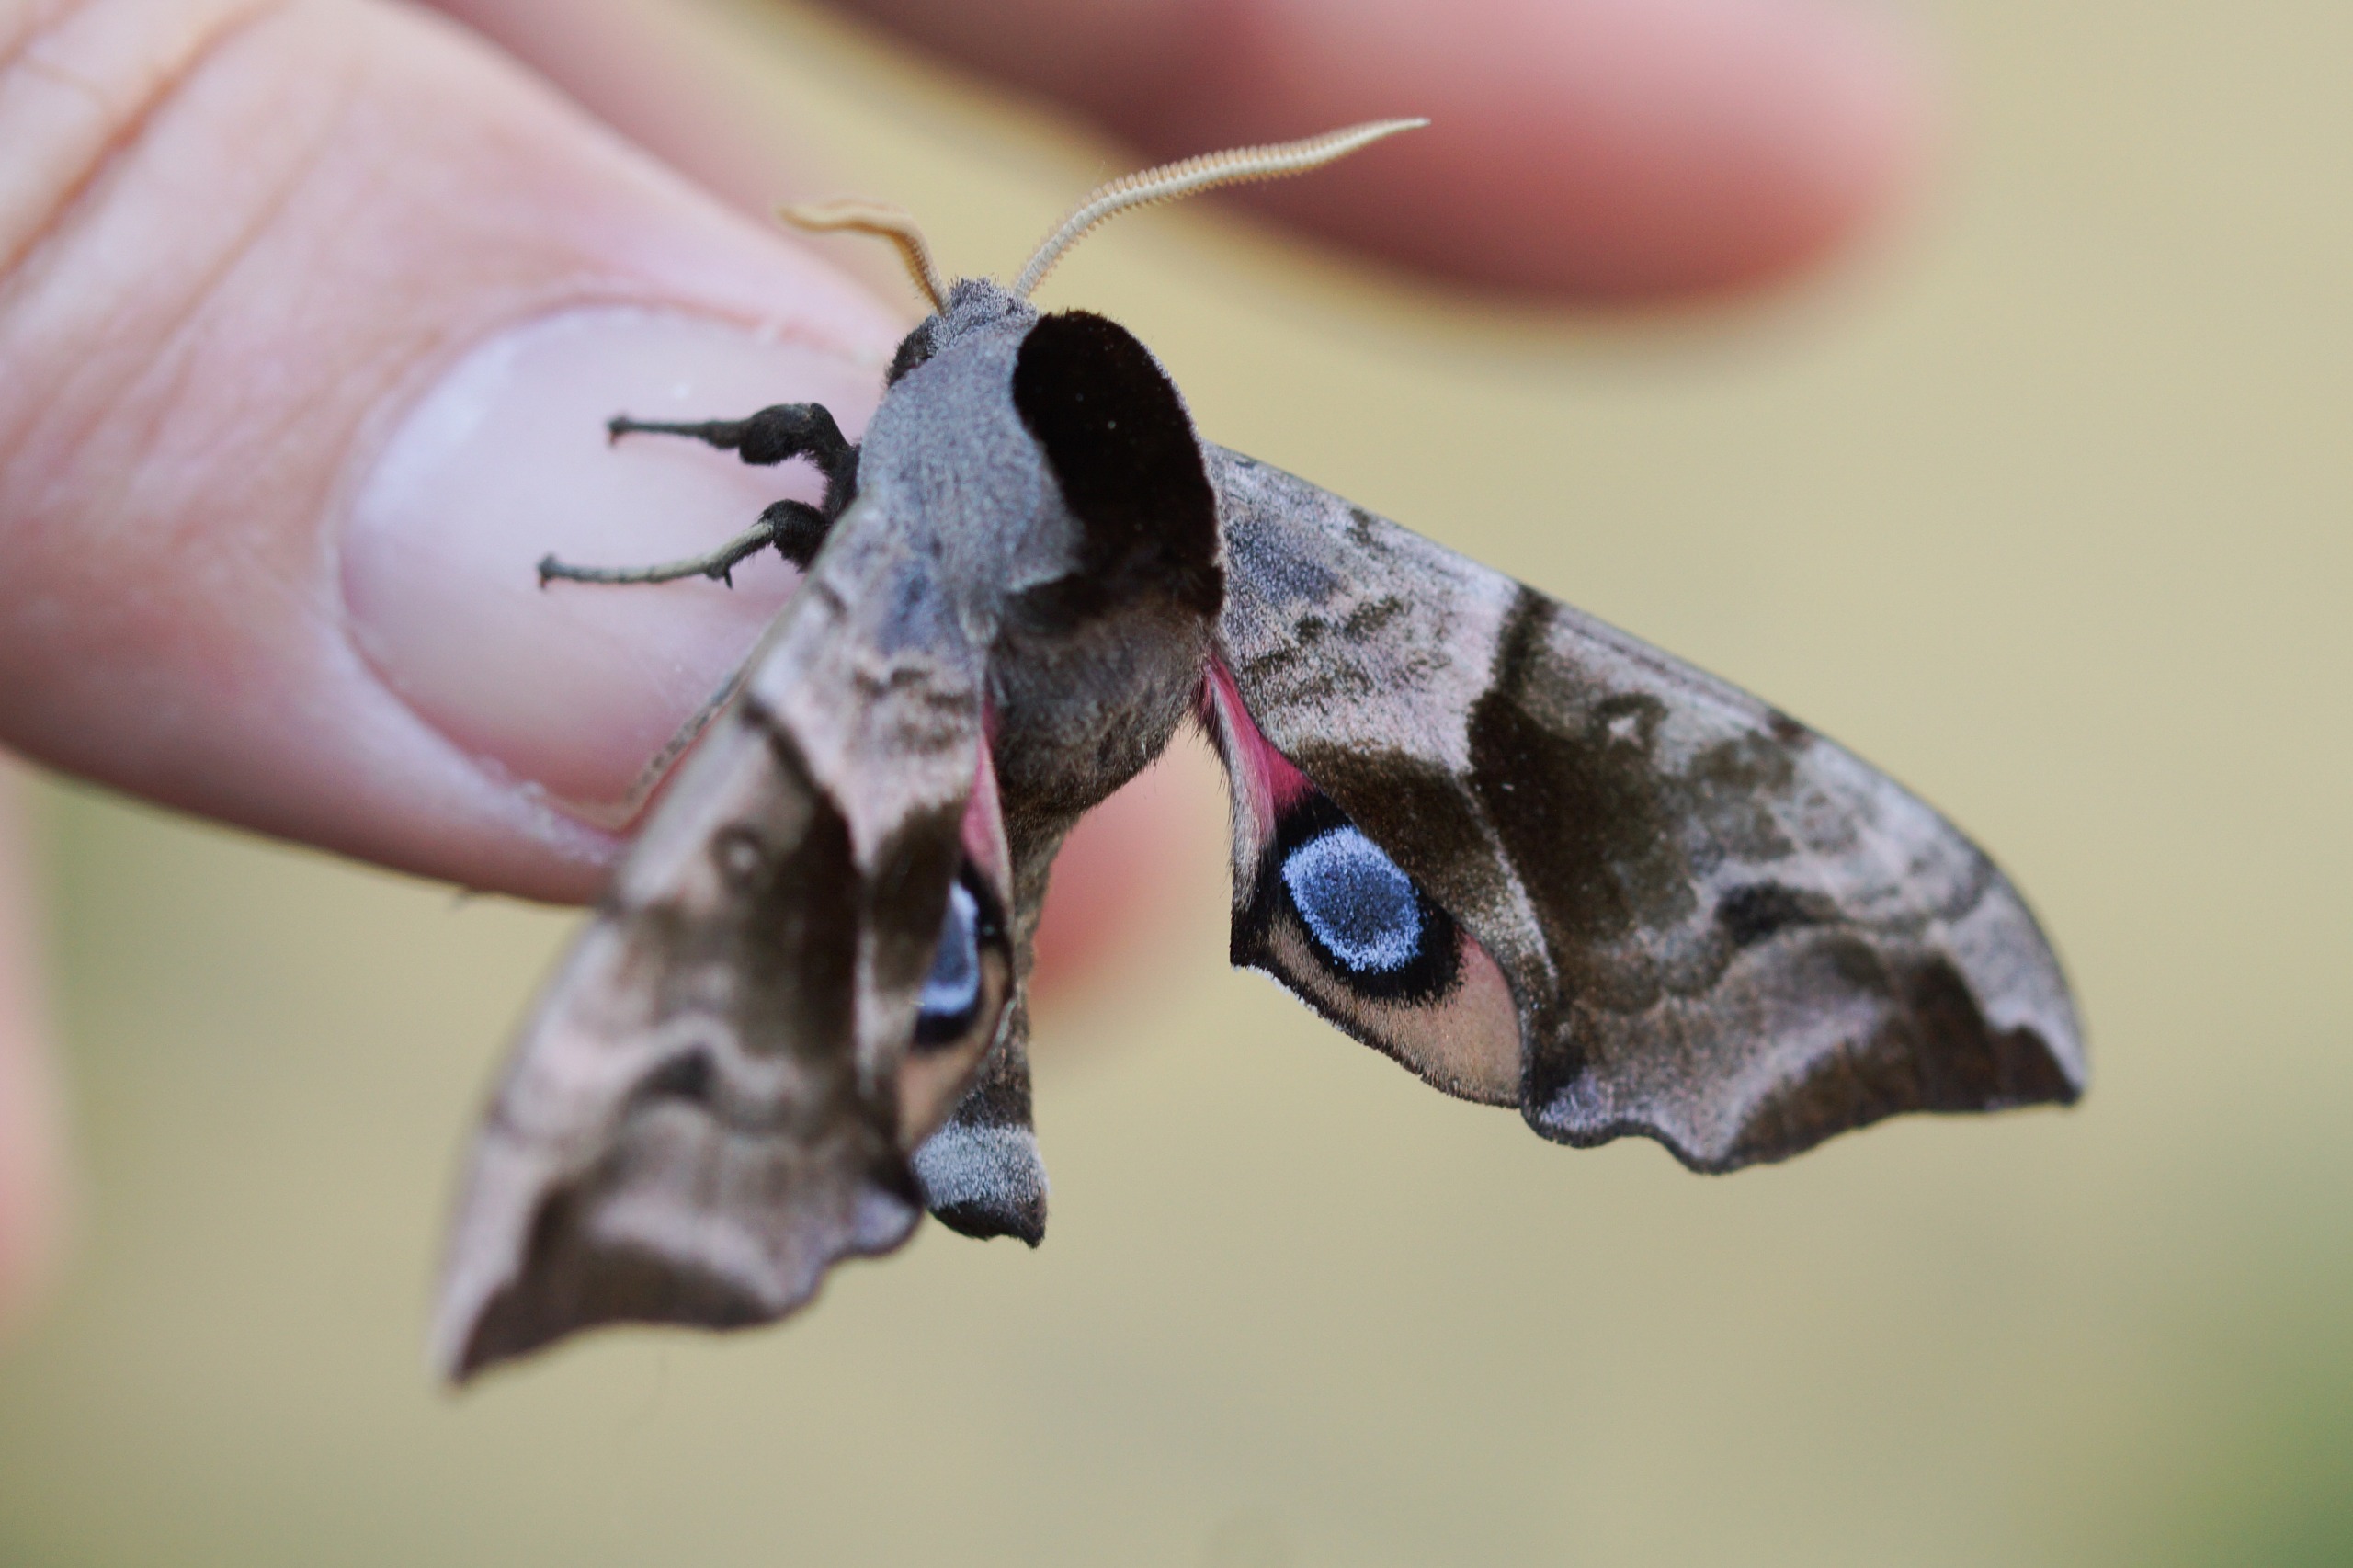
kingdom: Animalia
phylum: Arthropoda
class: Insecta
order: Lepidoptera
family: Sphingidae
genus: Smerinthus
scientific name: Smerinthus ocellata
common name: Aftenpåfugleøje
